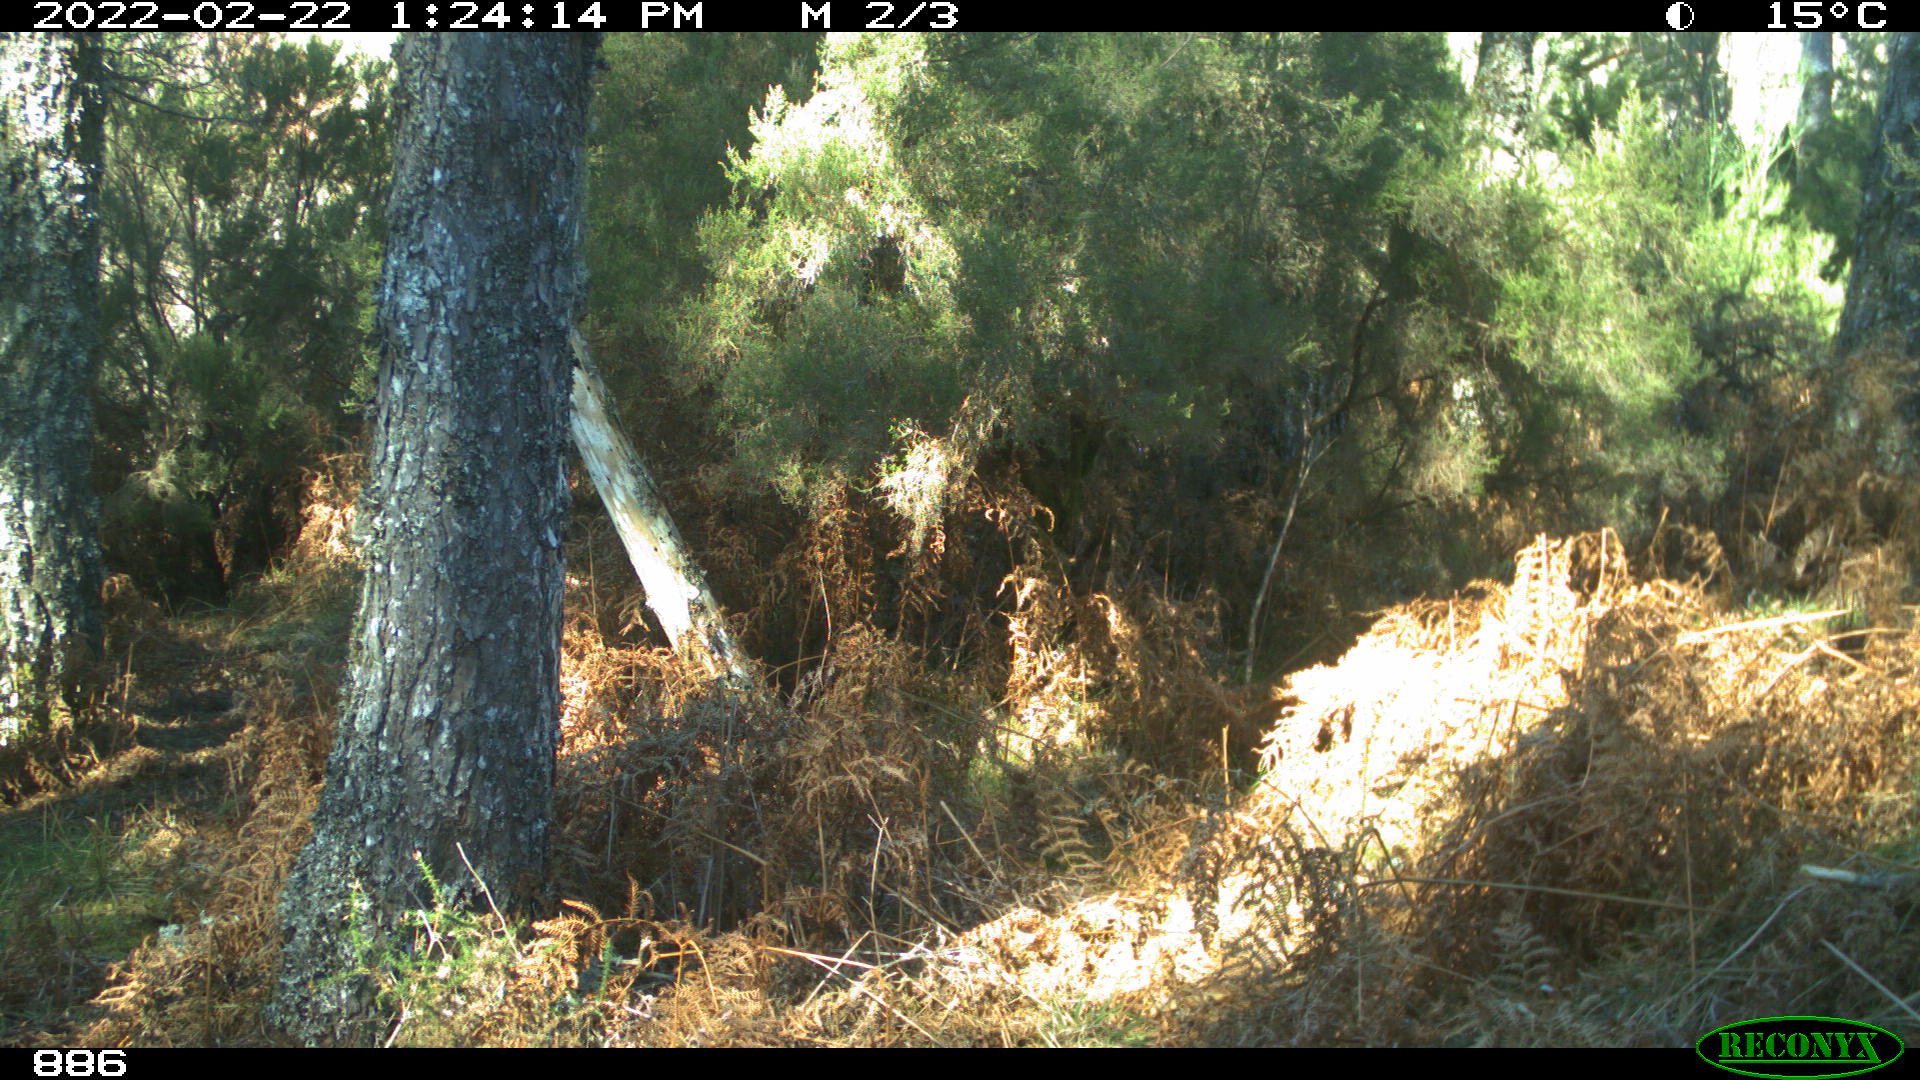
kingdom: Animalia
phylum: Chordata
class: Mammalia
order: Perissodactyla
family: Equidae
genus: Equus
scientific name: Equus caballus
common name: Horse
